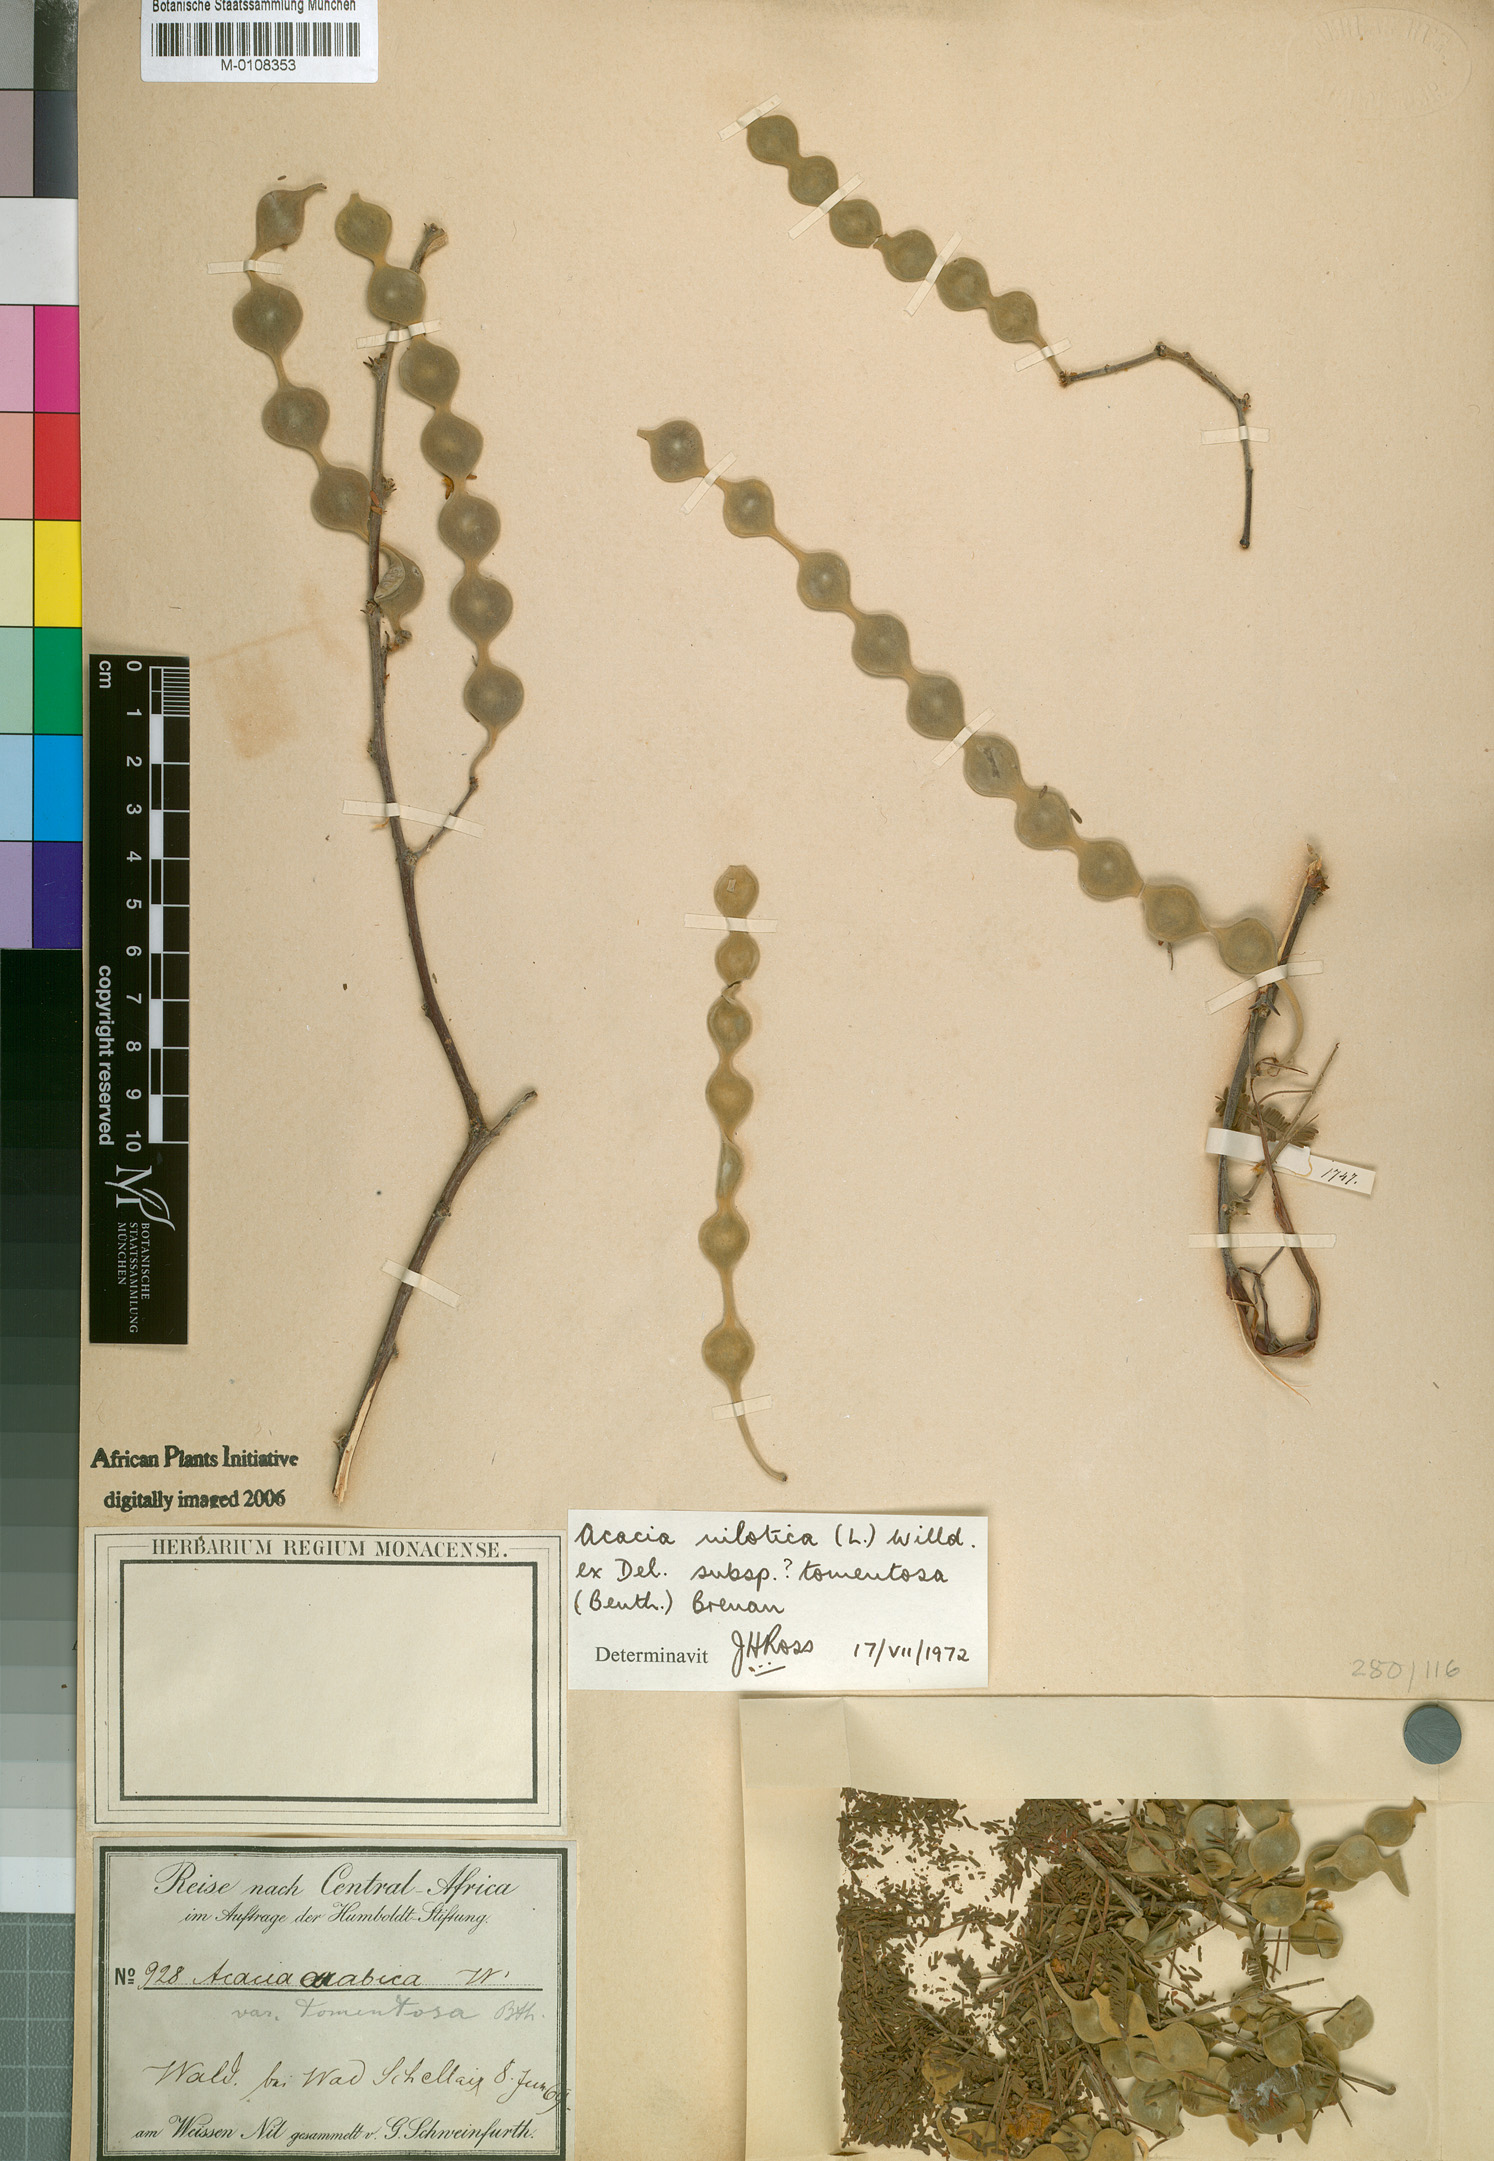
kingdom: Plantae
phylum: Tracheophyta
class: Magnoliopsida
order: Fabales
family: Fabaceae
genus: Vachellia
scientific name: Vachellia nilotica
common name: Arabic gumtree
